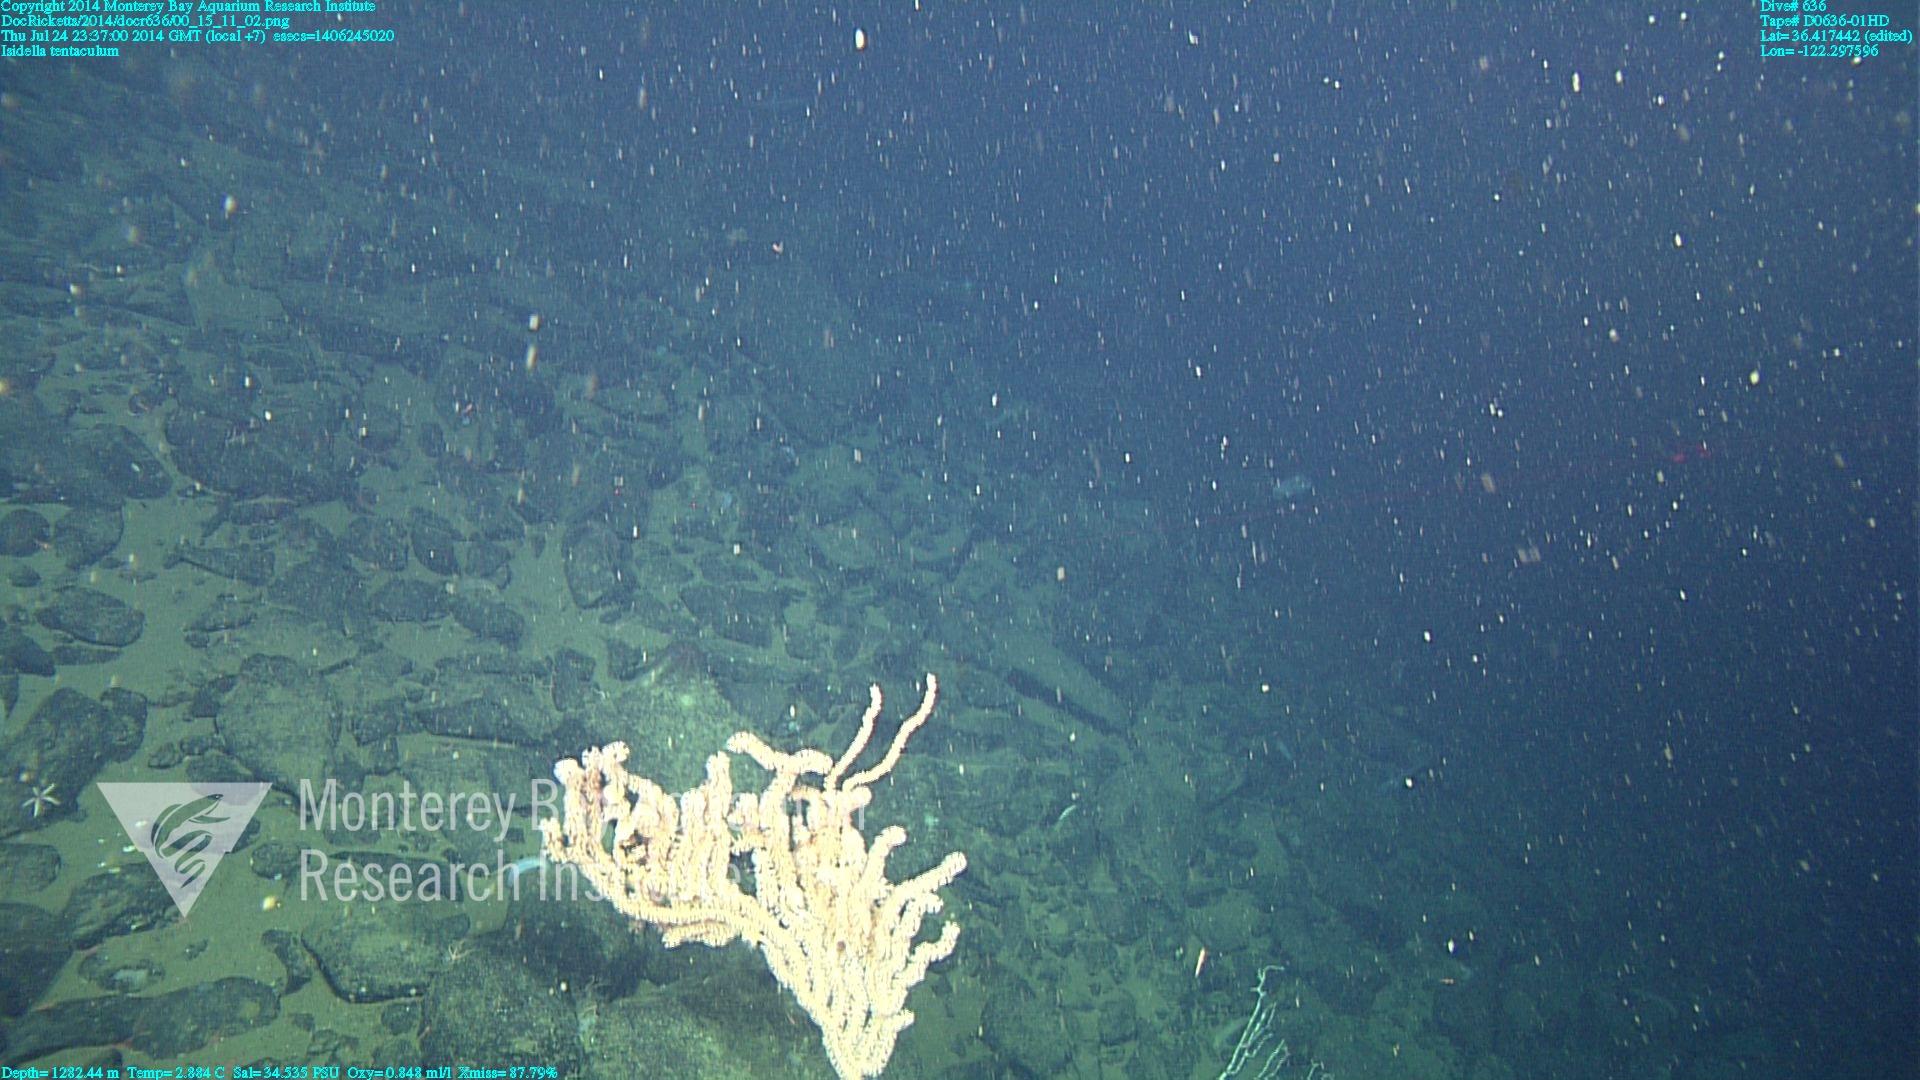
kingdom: Animalia
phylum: Cnidaria
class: Anthozoa
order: Scleralcyonacea
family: Keratoisididae
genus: Isidella
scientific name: Isidella tentaculum
